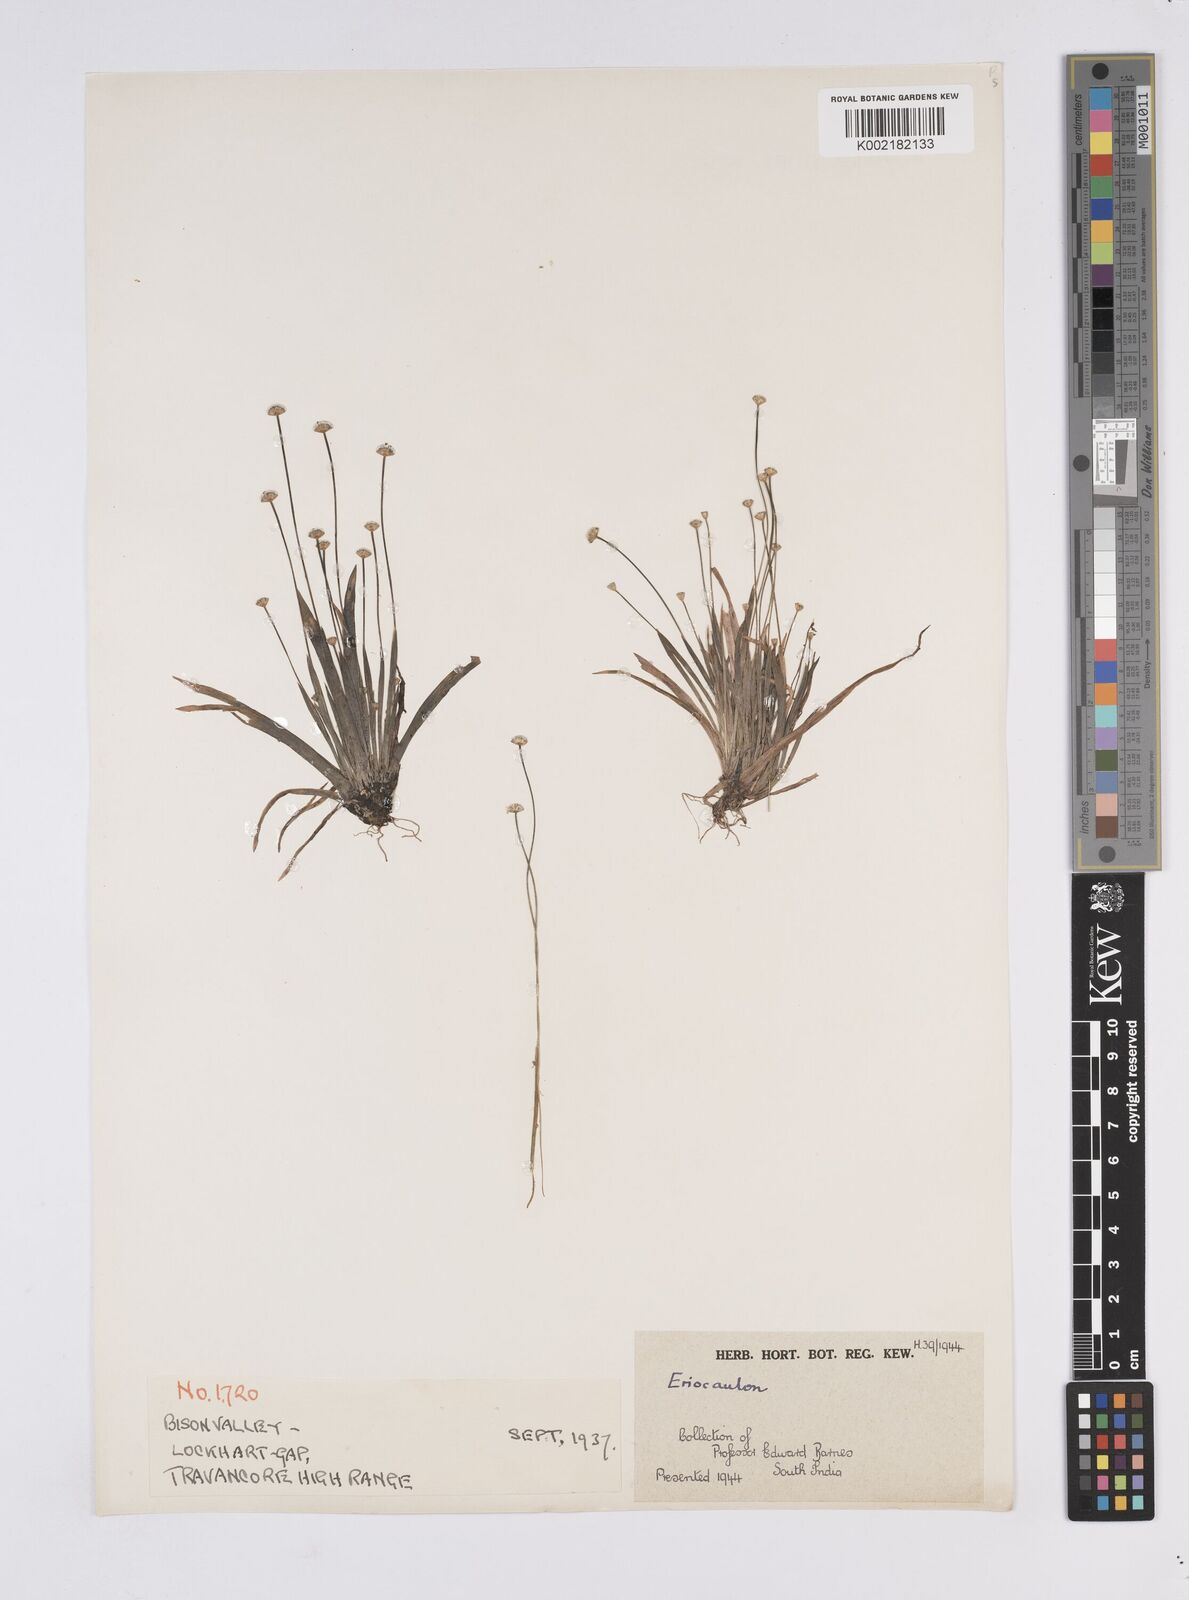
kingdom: Plantae
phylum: Tracheophyta
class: Liliopsida
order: Poales
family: Eriocaulaceae
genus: Eriocaulon
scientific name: Eriocaulon
